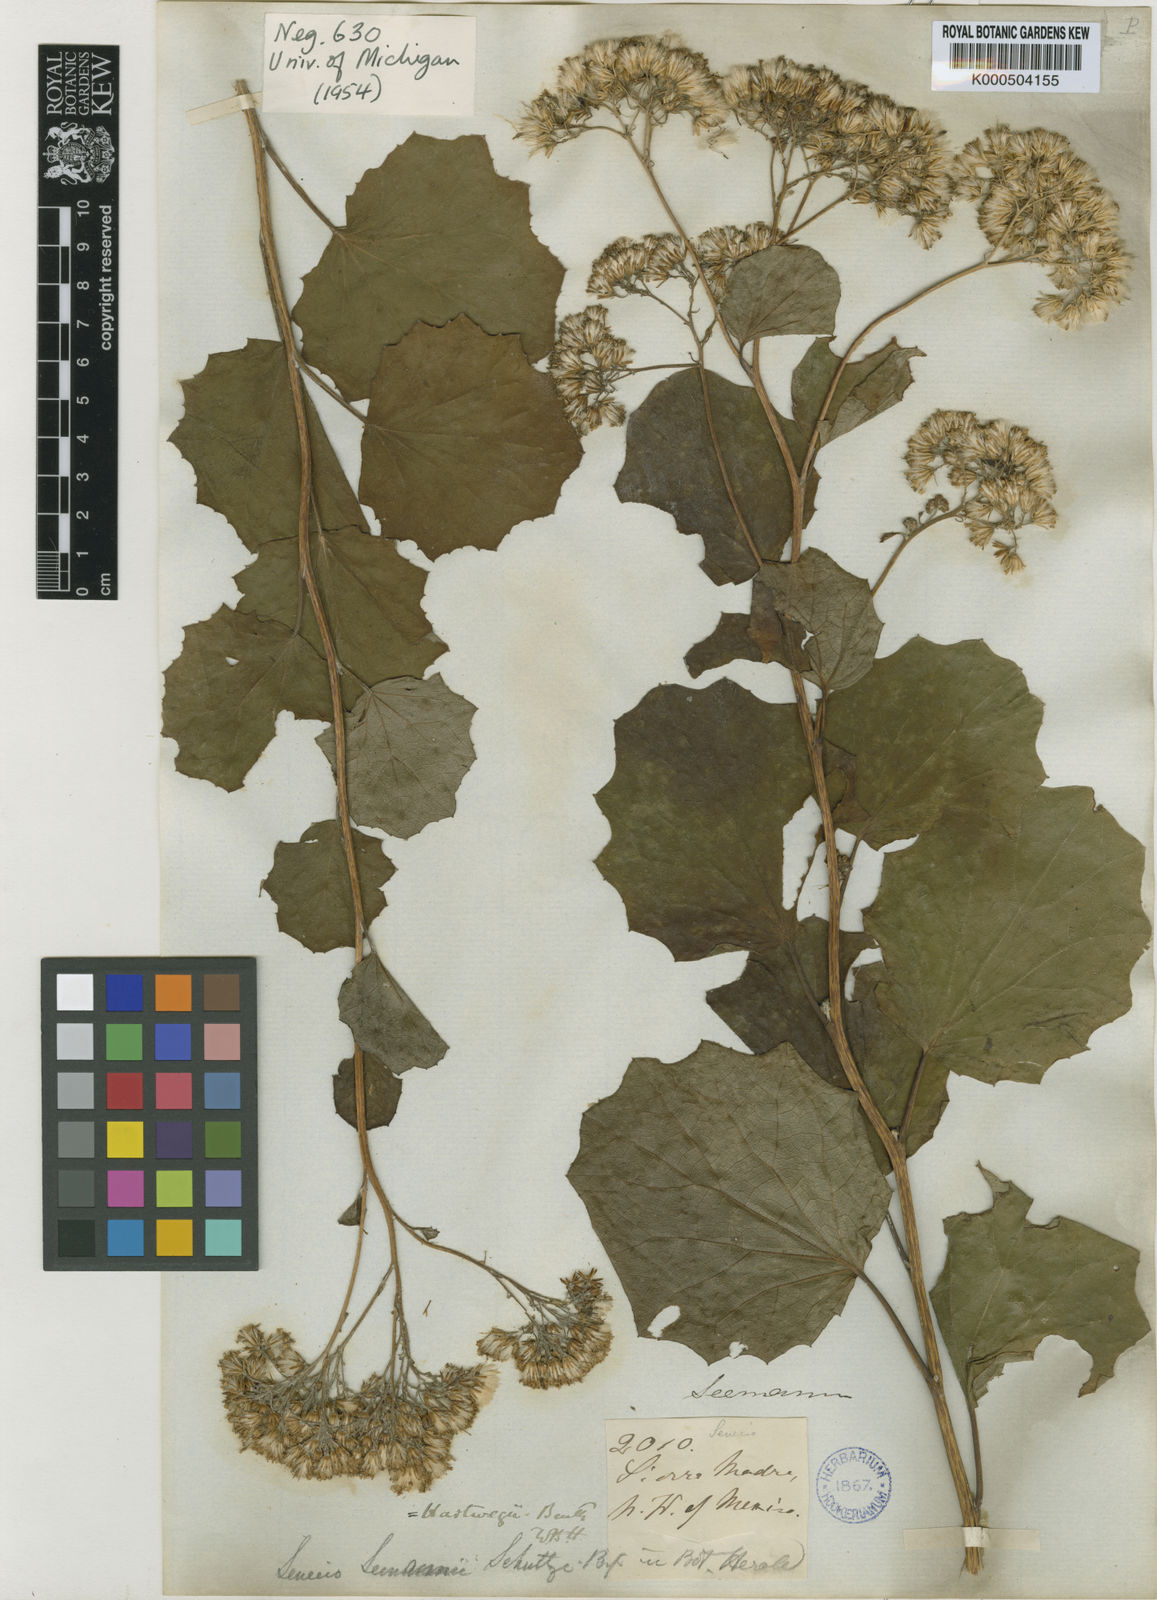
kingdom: Plantae
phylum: Tracheophyta
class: Magnoliopsida
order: Asterales
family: Asteraceae
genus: Roldana
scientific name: Roldana hartwegii
